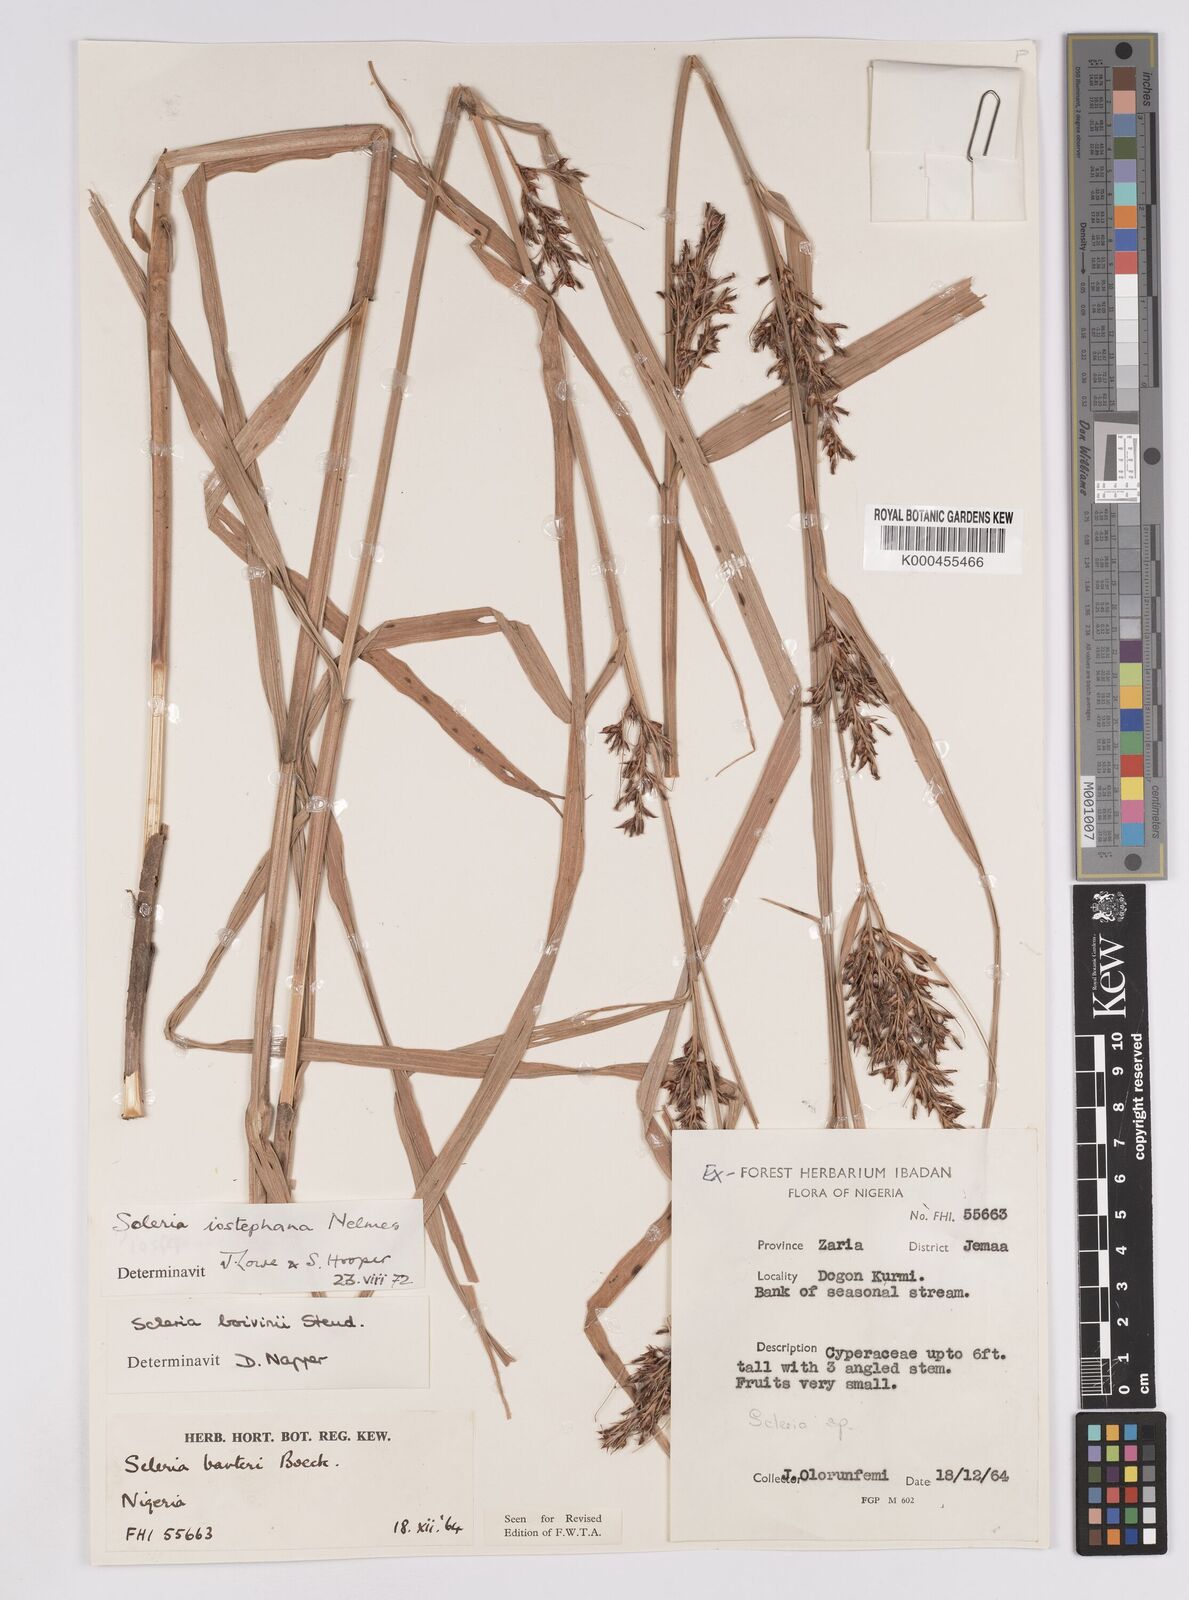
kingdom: Plantae
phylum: Tracheophyta
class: Liliopsida
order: Poales
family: Cyperaceae
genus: Scleria
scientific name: Scleria iostephana
